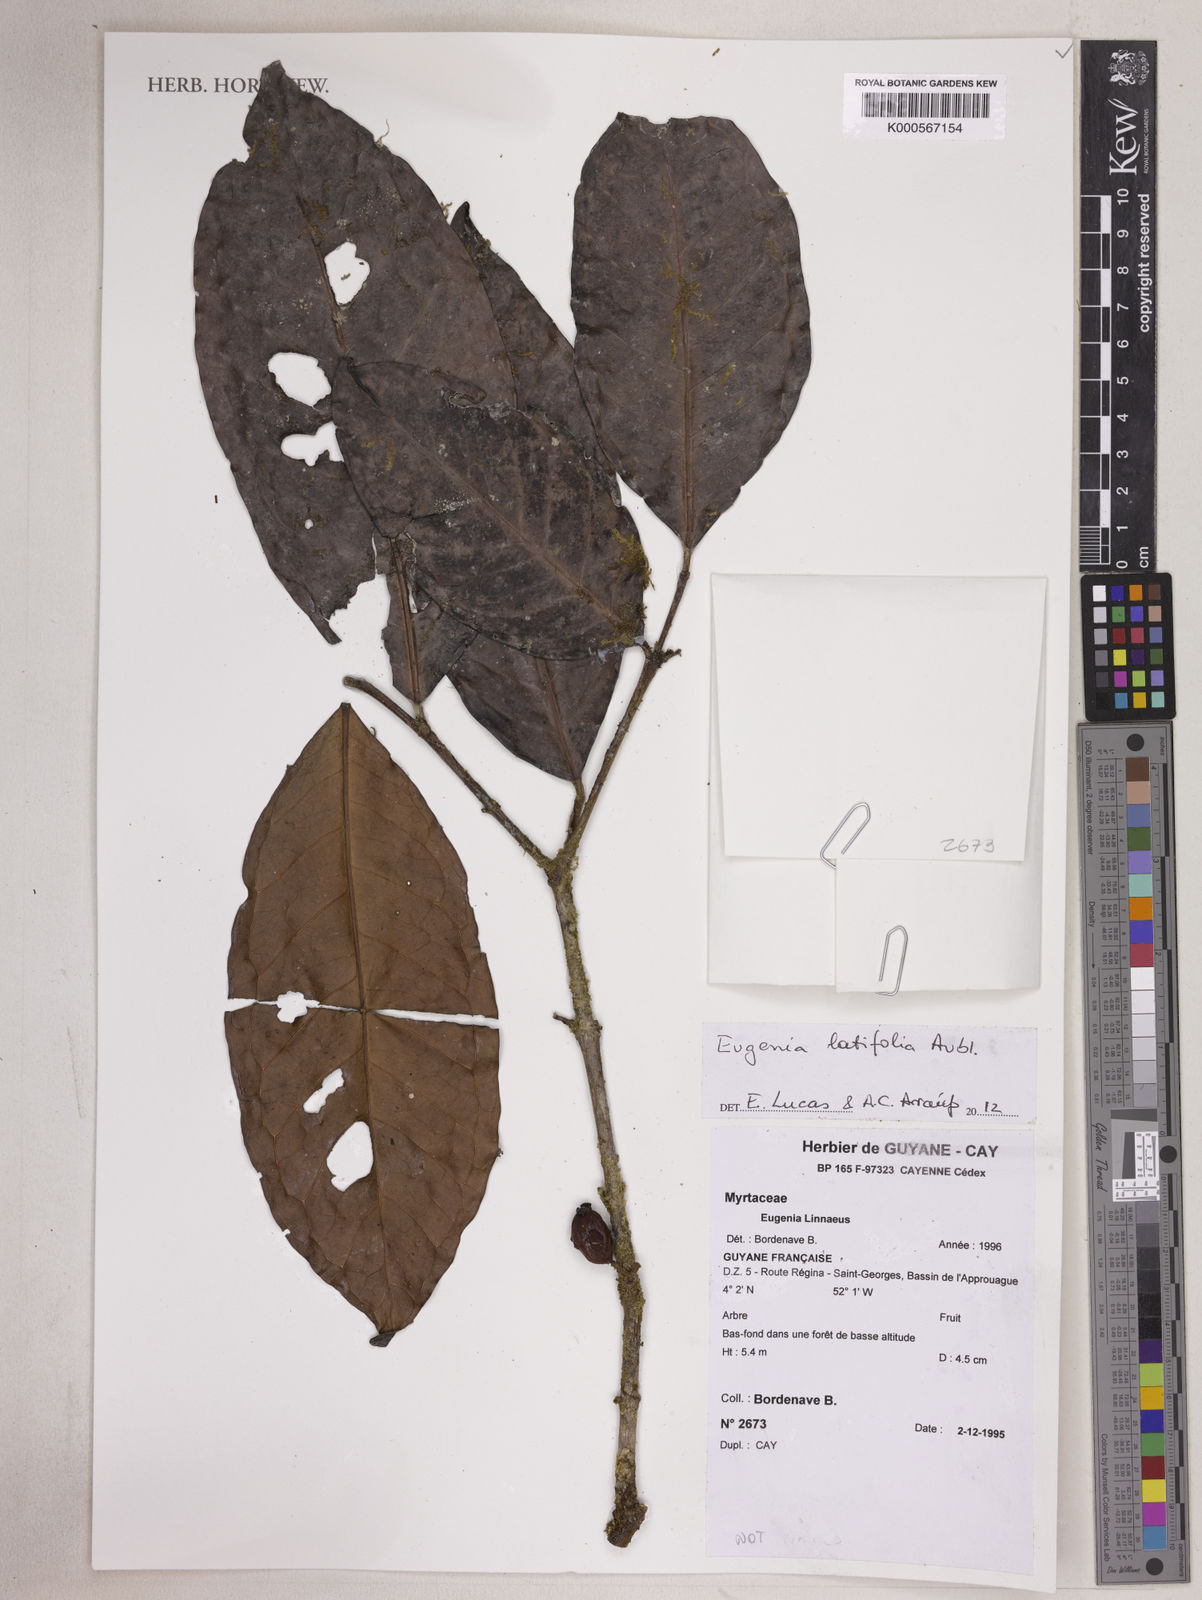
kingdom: Plantae
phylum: Tracheophyta
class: Magnoliopsida
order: Myrtales
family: Myrtaceae
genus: Eugenia
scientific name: Eugenia latifolia
